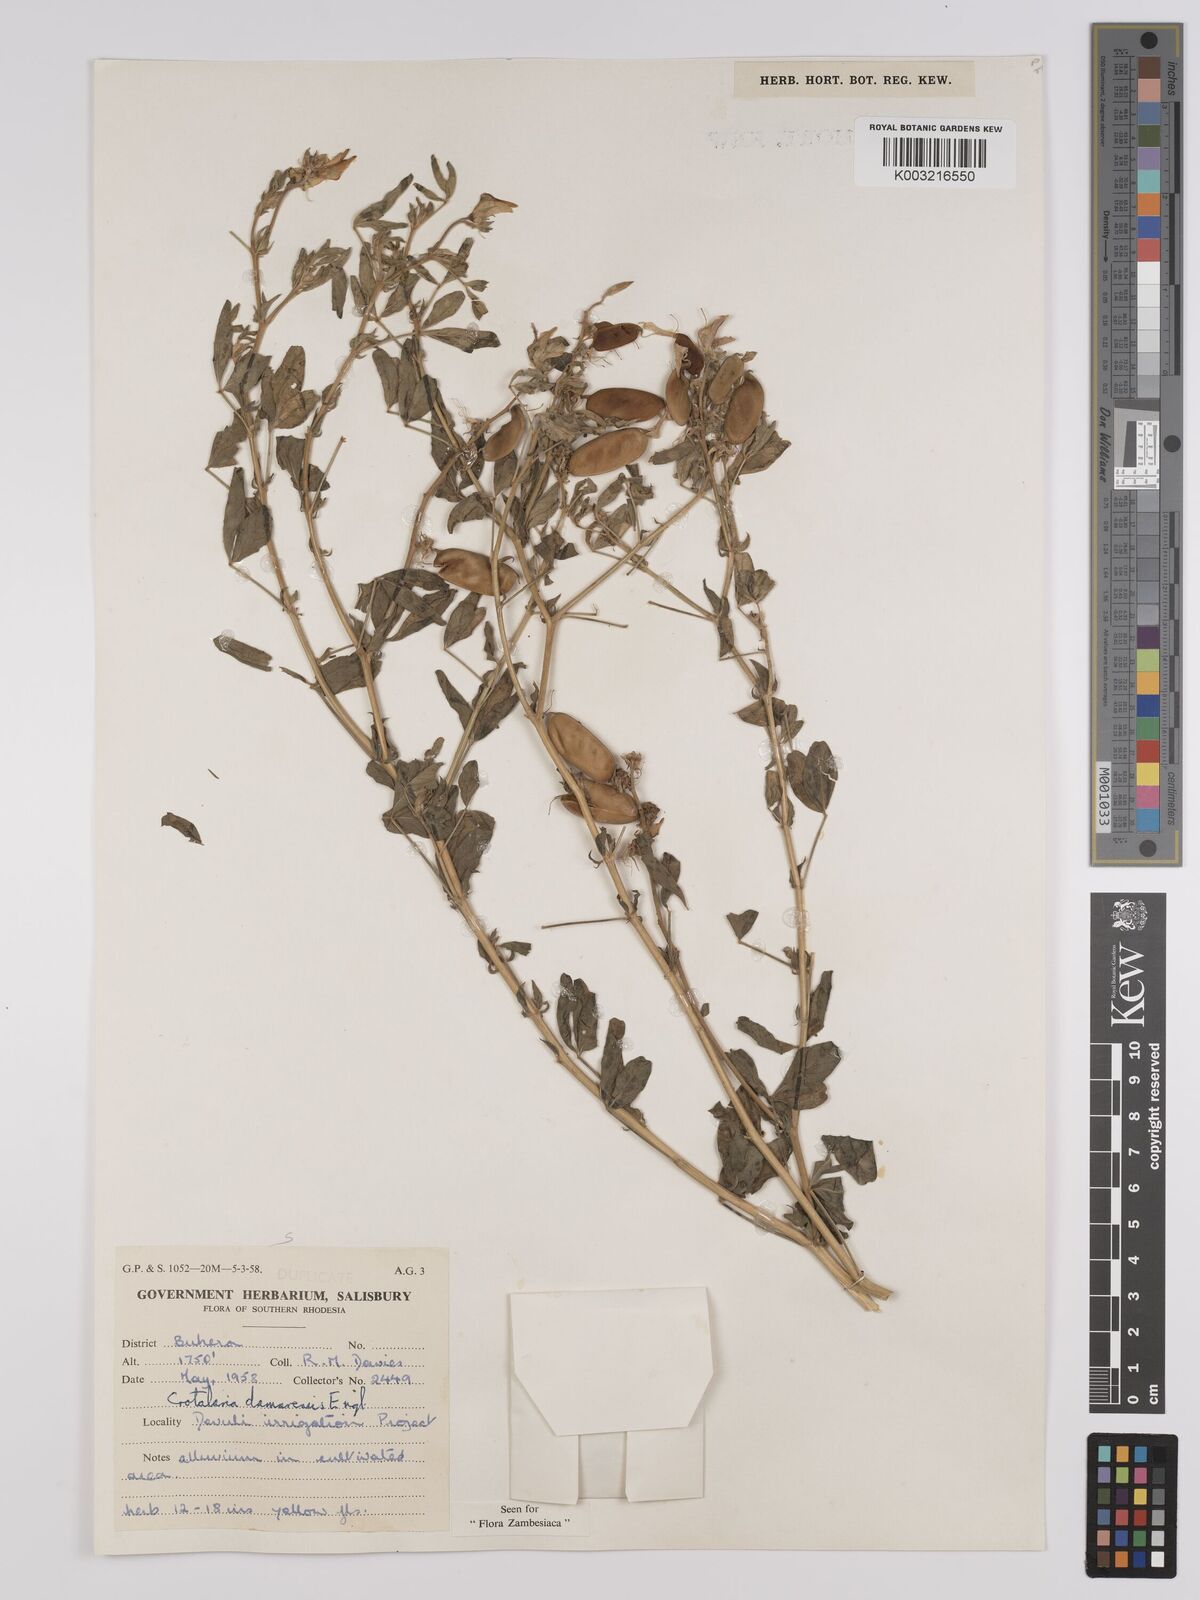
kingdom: Plantae
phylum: Tracheophyta
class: Magnoliopsida
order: Fabales
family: Fabaceae
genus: Crotalaria
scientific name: Crotalaria damarensis
